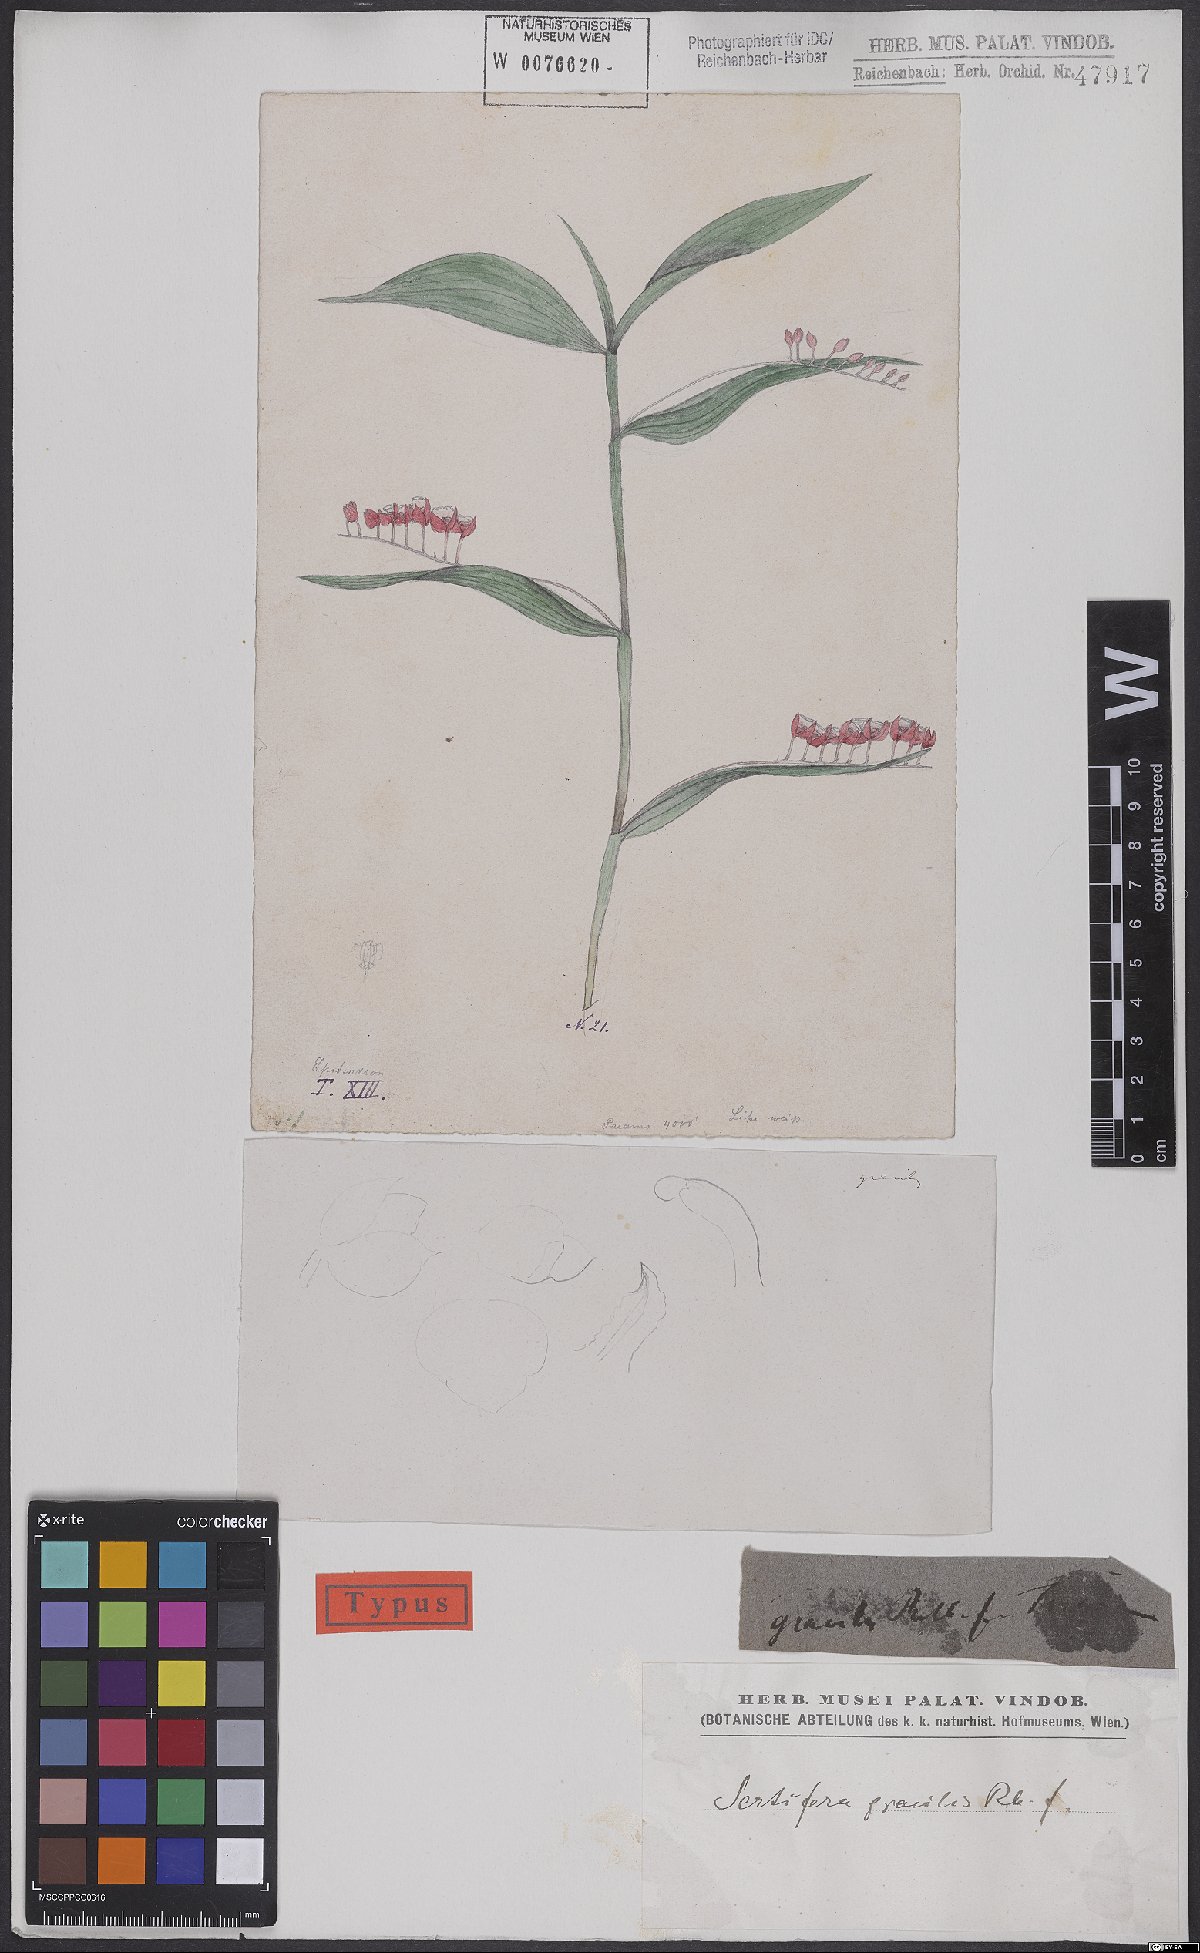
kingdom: Plantae
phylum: Tracheophyta
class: Liliopsida
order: Asparagales
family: Orchidaceae
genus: Sertifera
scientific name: Sertifera gracilis
